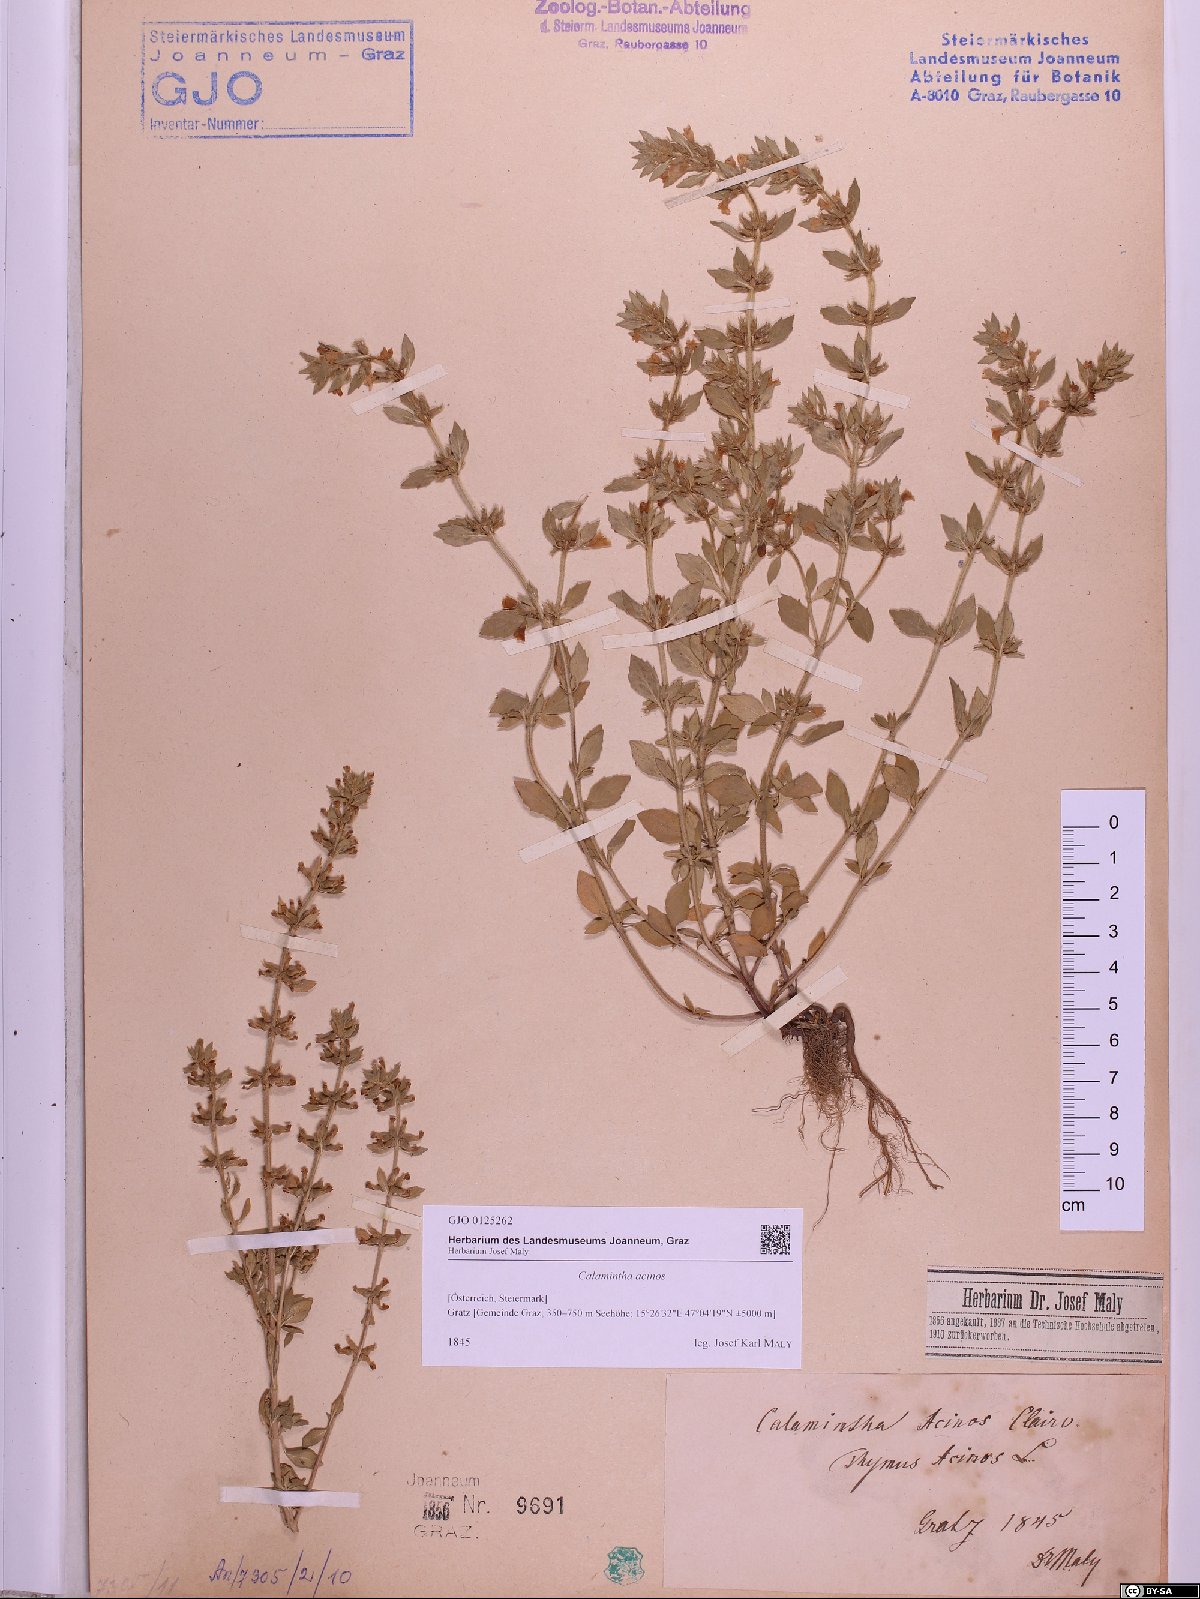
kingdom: Plantae
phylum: Tracheophyta
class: Magnoliopsida
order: Lamiales
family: Lamiaceae
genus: Clinopodium
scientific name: Clinopodium acinos
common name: Basil thyme
